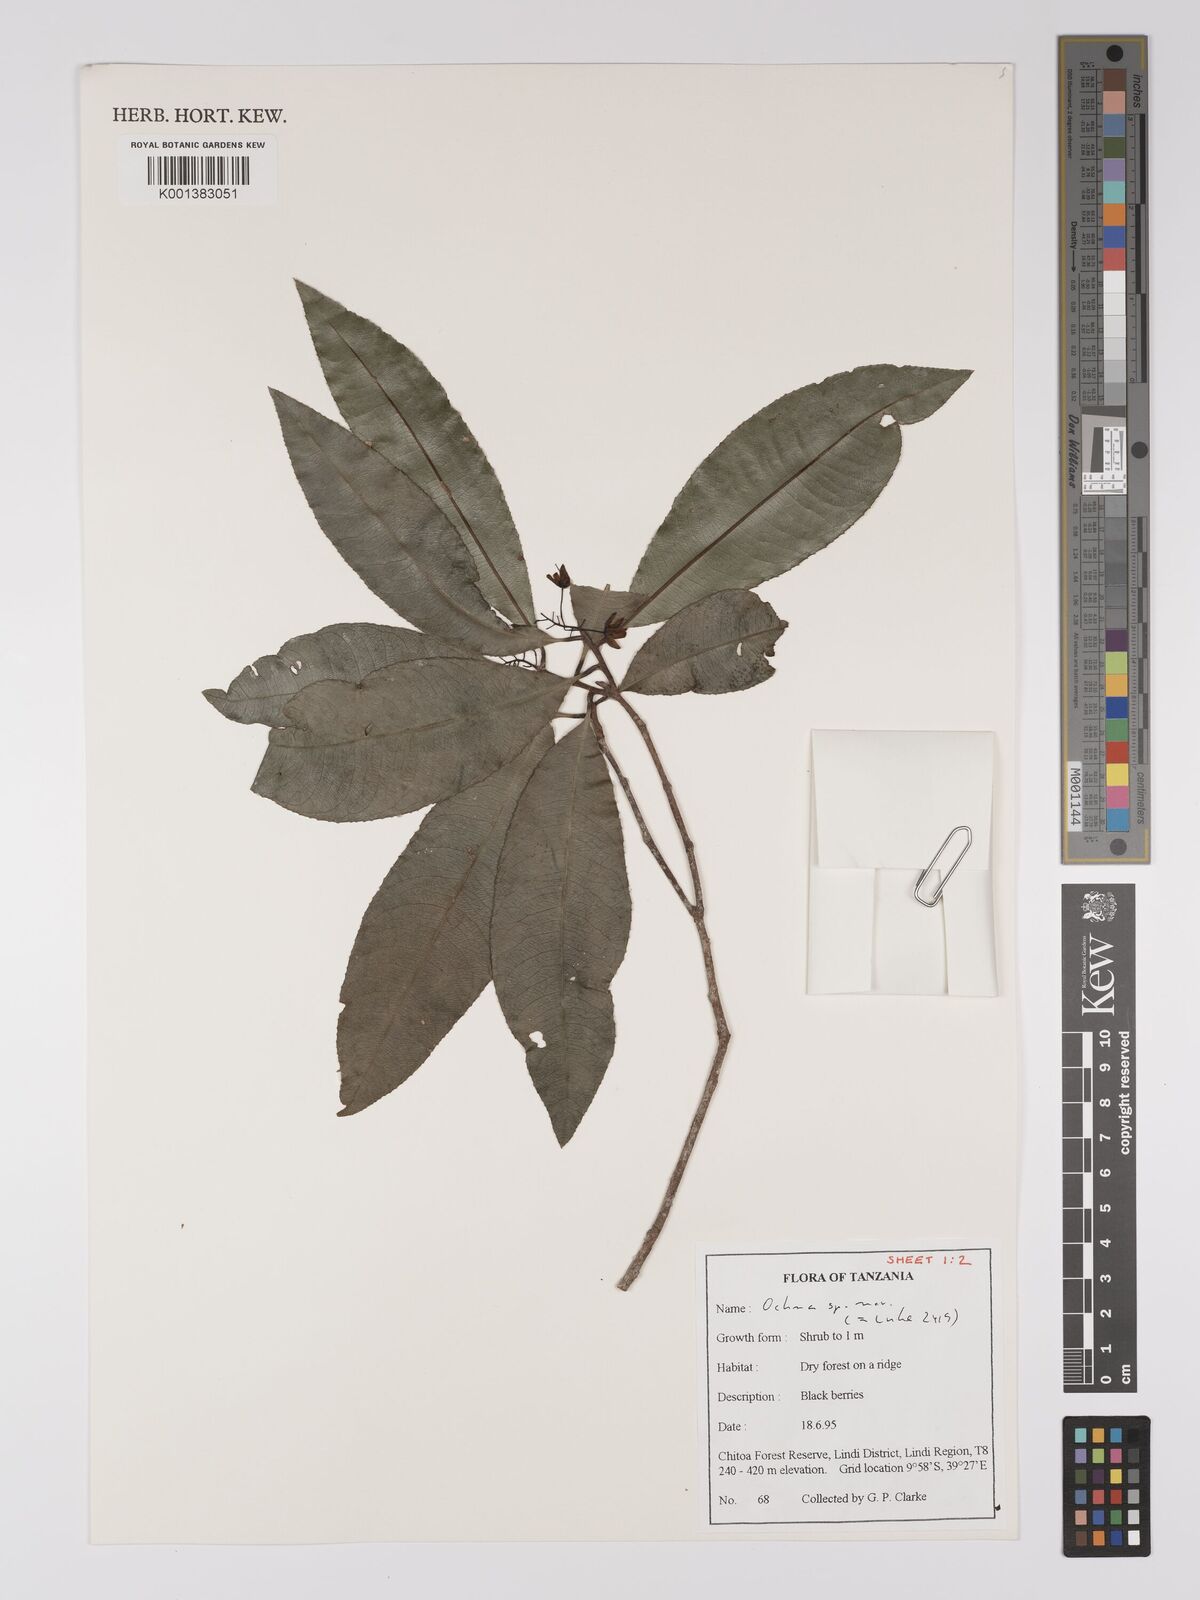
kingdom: Plantae
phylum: Tracheophyta
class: Magnoliopsida
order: Malpighiales
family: Ochnaceae
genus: Ochna
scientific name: Ochna apetala
